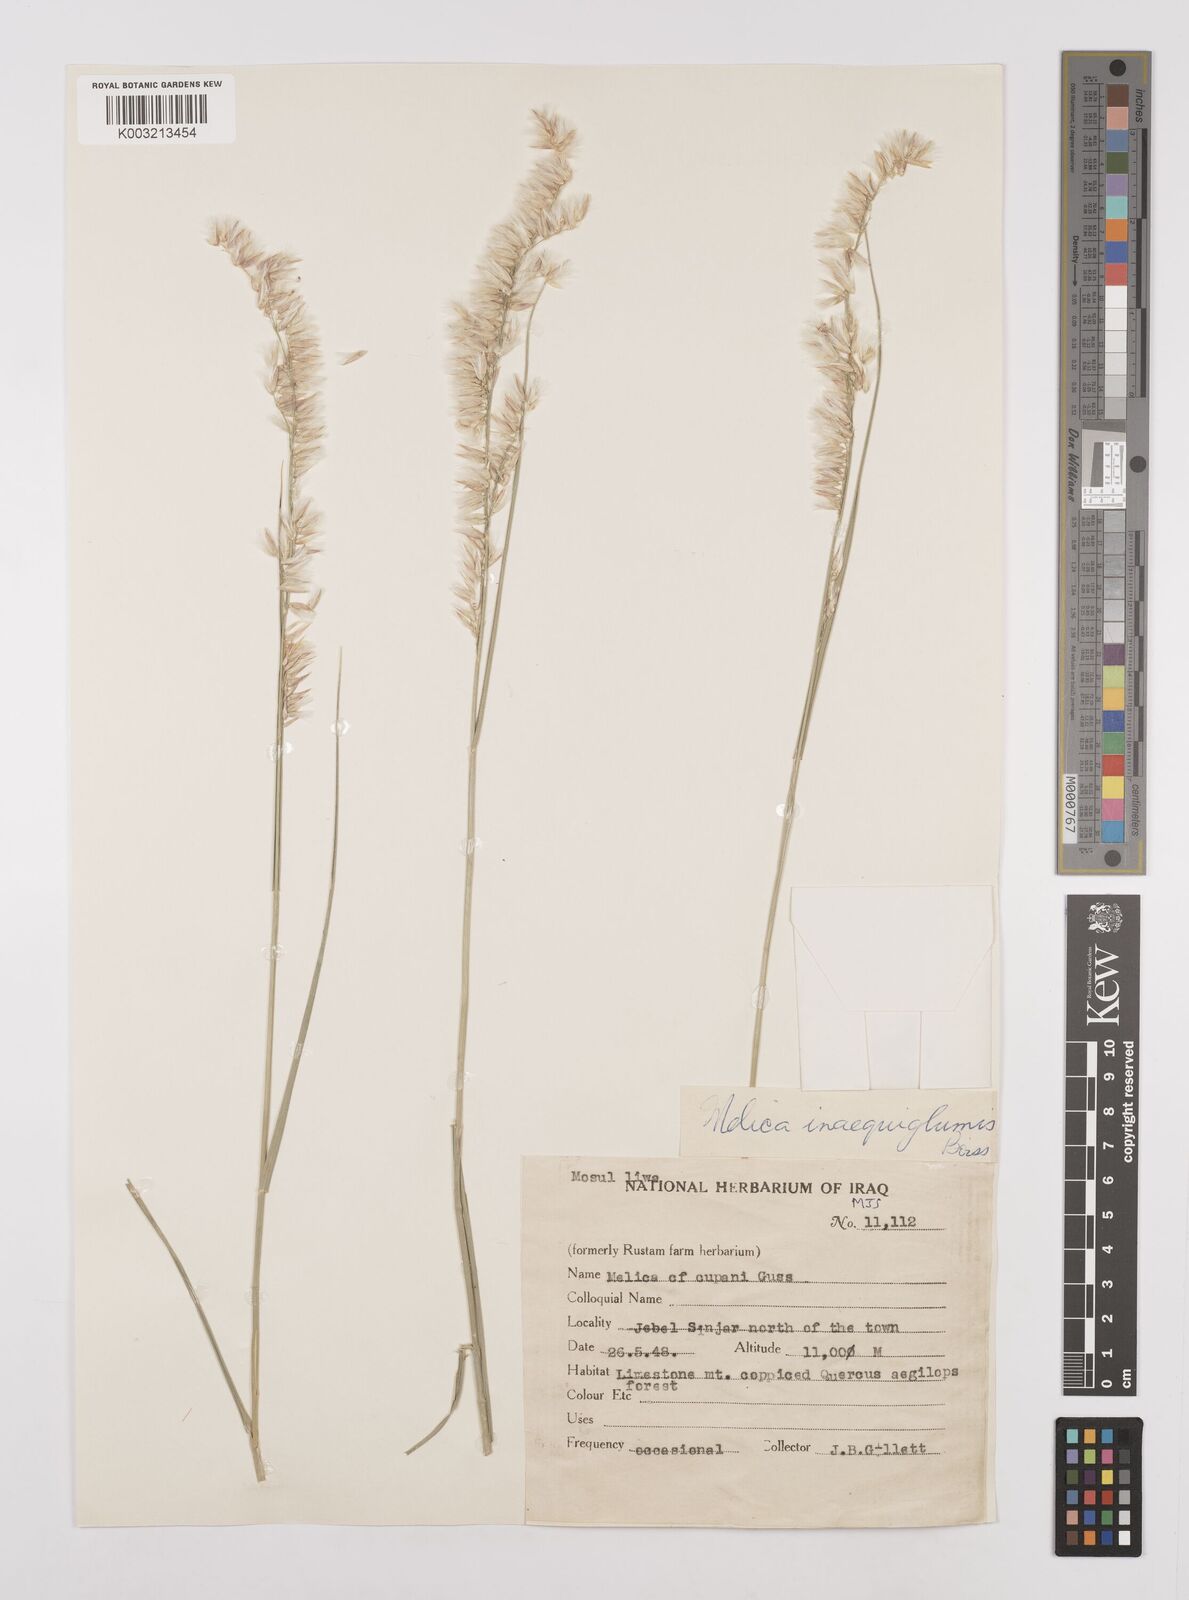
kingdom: Plantae
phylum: Tracheophyta
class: Liliopsida
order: Poales
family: Poaceae
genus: Melica
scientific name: Melica persica
